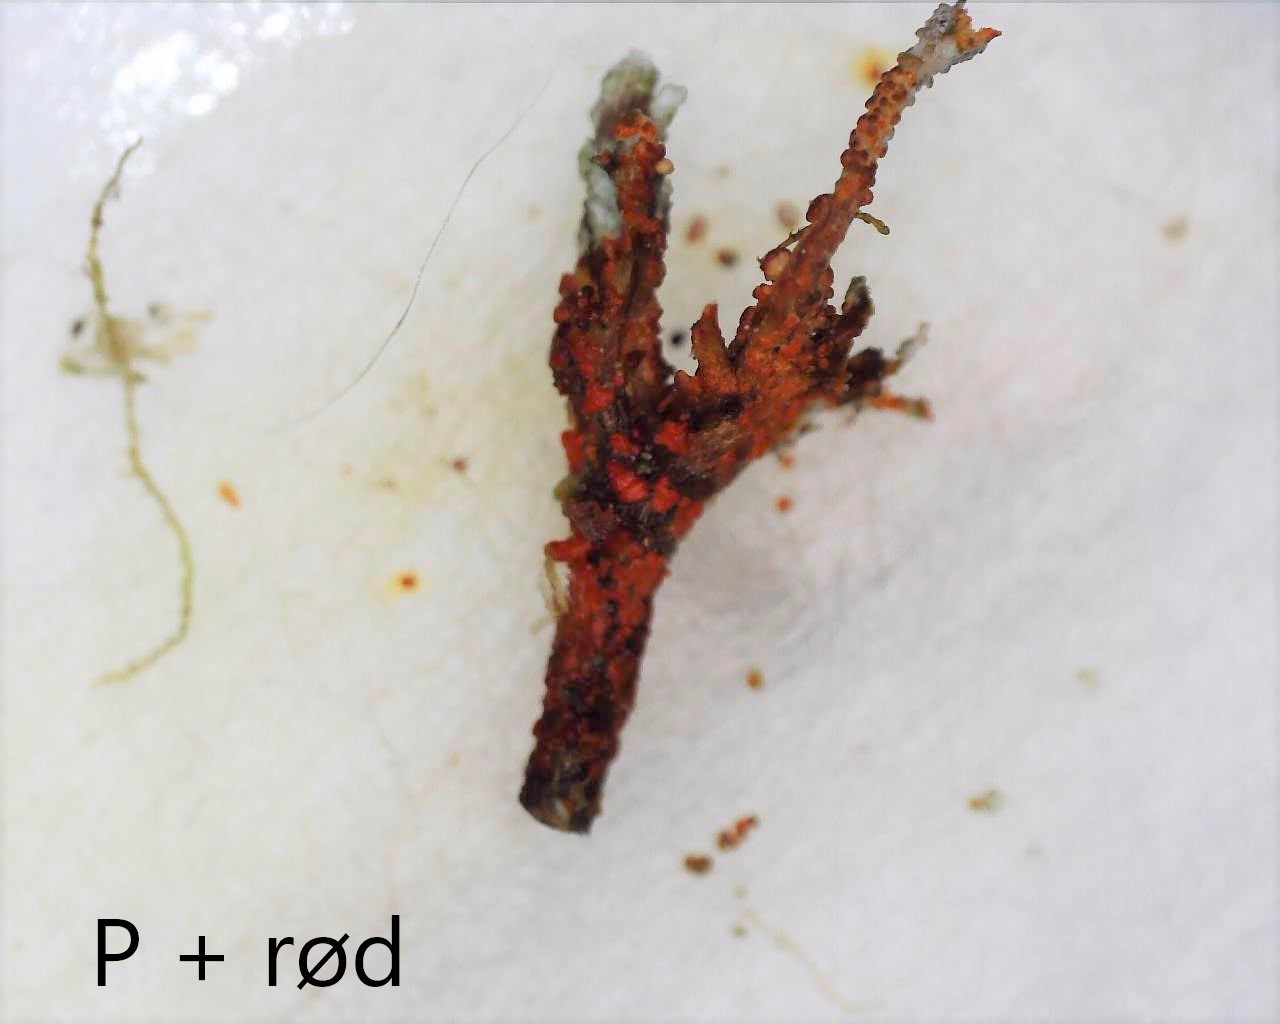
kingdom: Fungi
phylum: Ascomycota
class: Lecanoromycetes
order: Lecanorales
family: Cladoniaceae
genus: Cladonia
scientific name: Cladonia phyllophora
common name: sortfodet bægerlav
